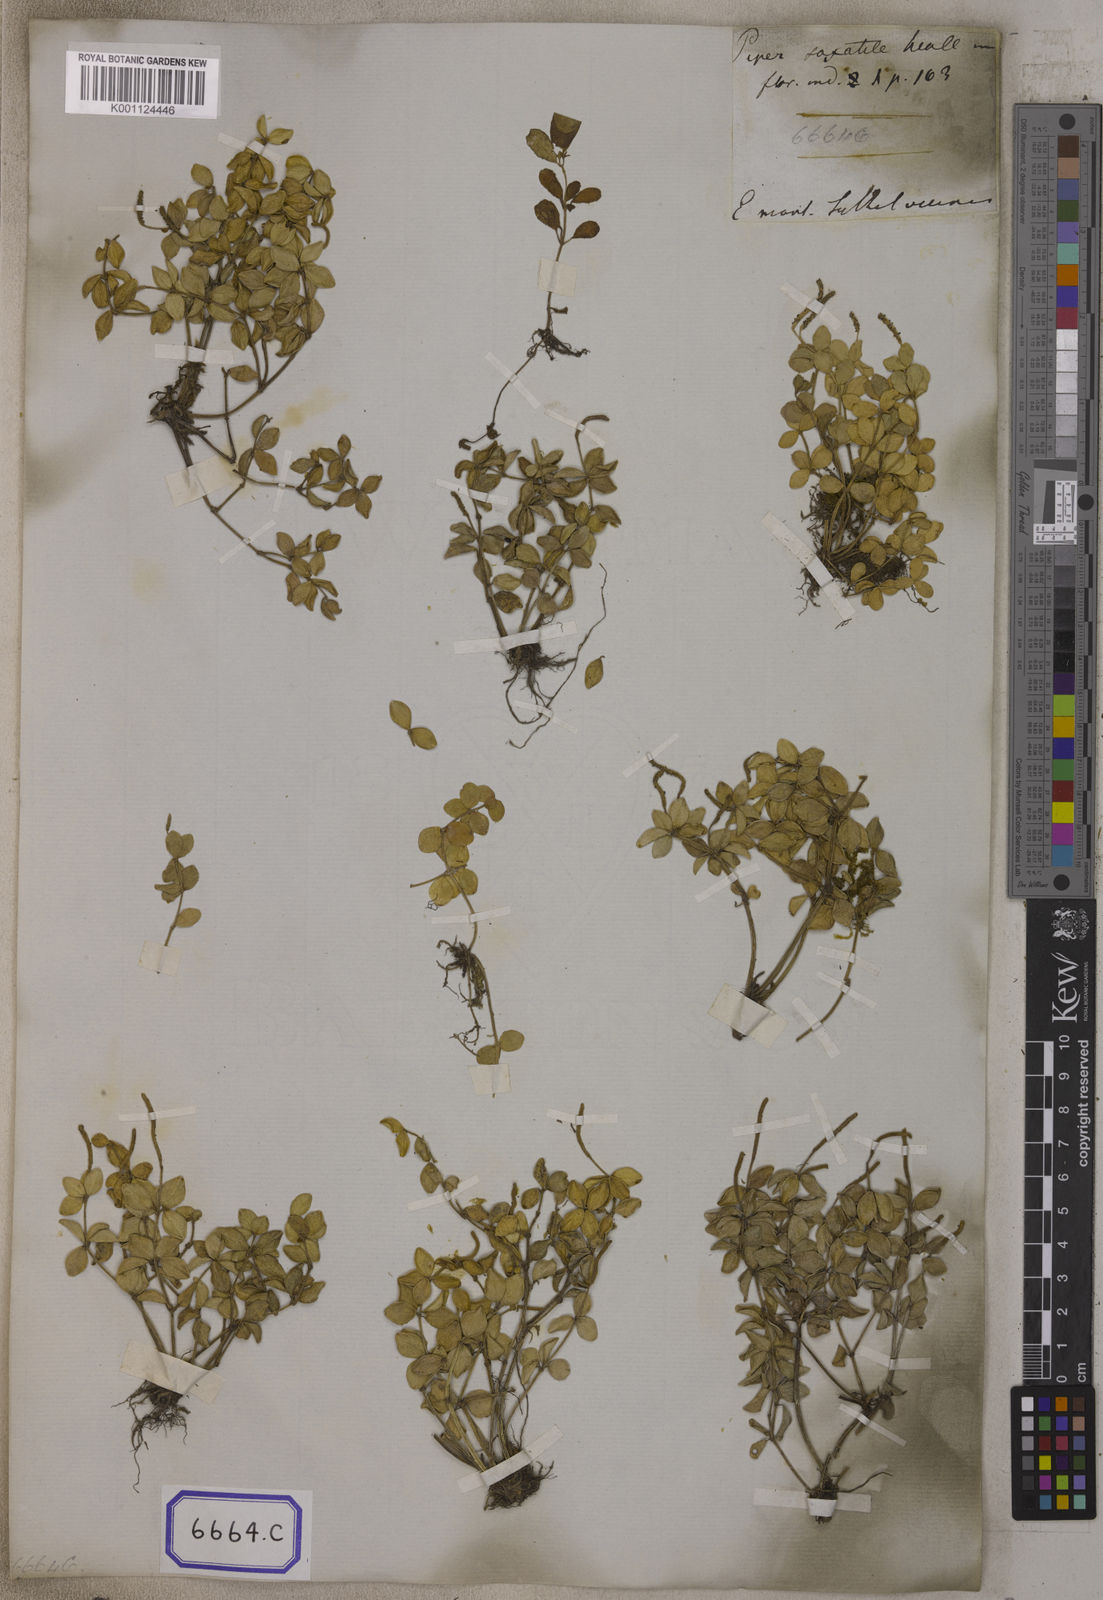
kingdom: Plantae
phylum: Tracheophyta
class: Magnoliopsida
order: Piperales
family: Piperaceae
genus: Peperomia
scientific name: Peperomia tetraphylla
